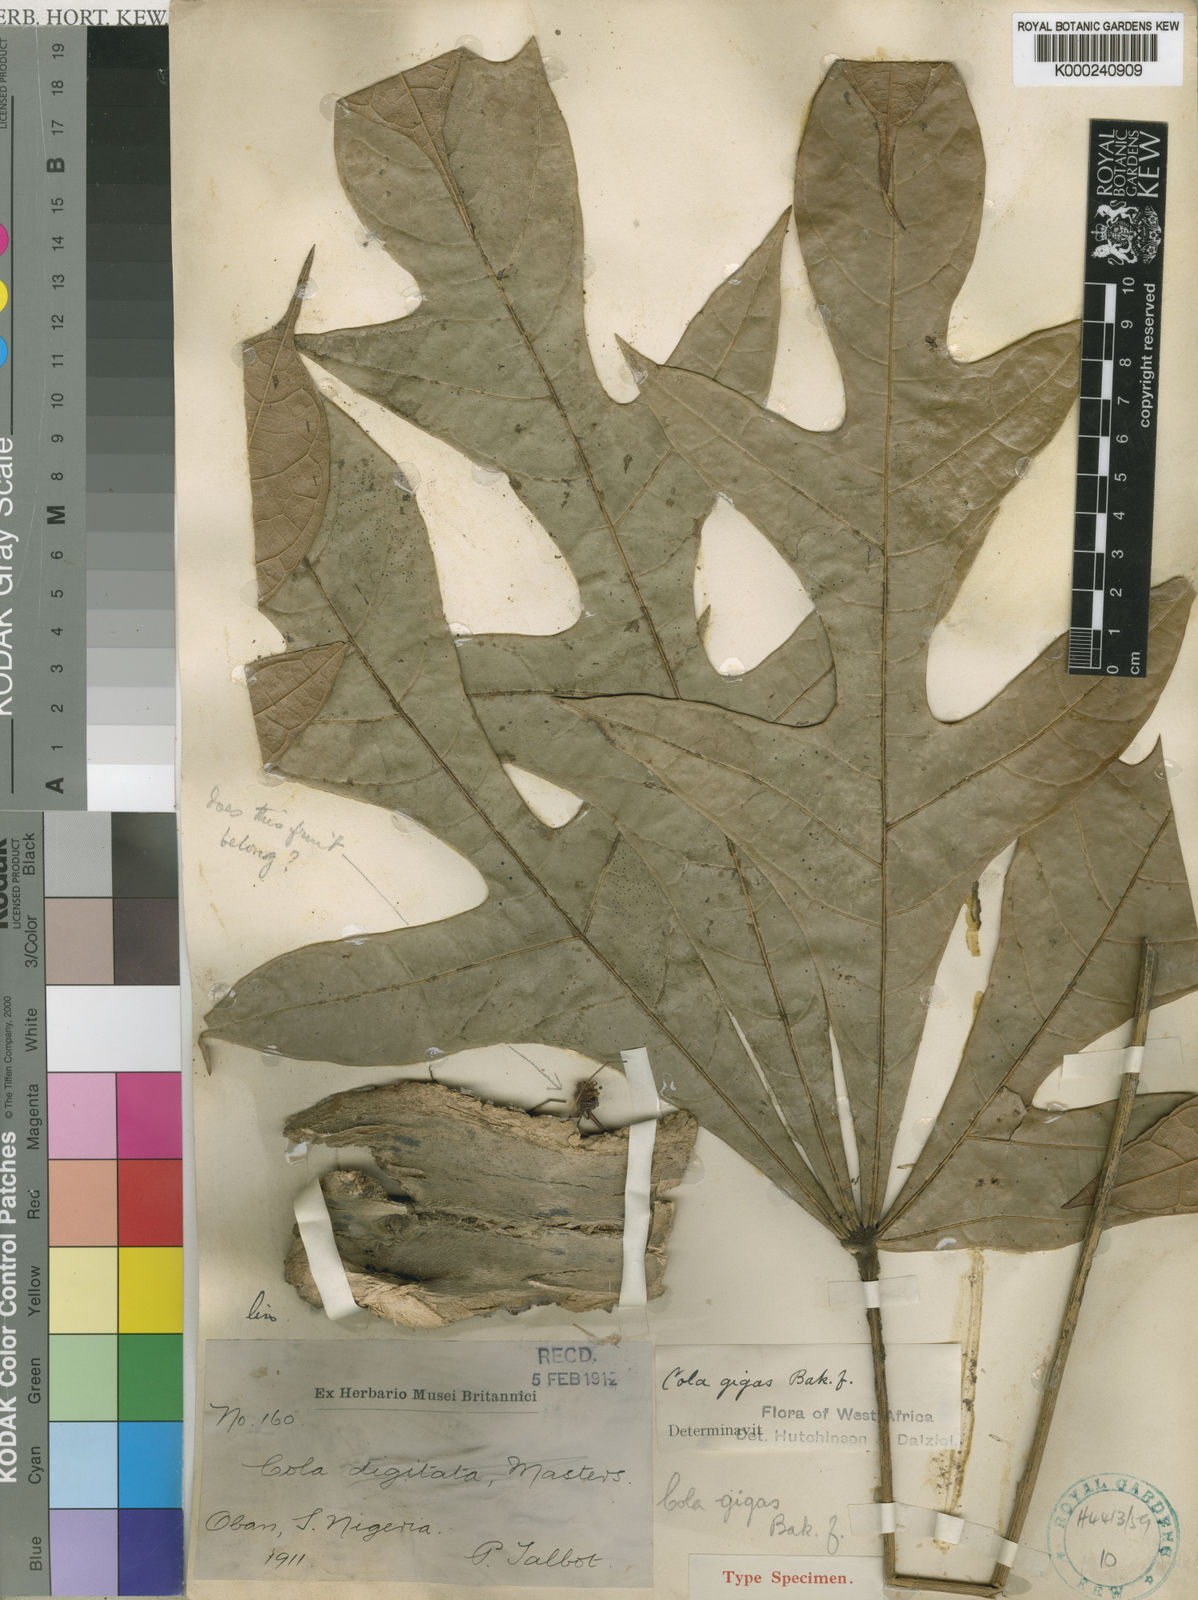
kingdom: Plantae
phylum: Tracheophyta
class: Magnoliopsida
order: Malvales
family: Malvaceae
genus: Cola
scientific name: Cola gigas
